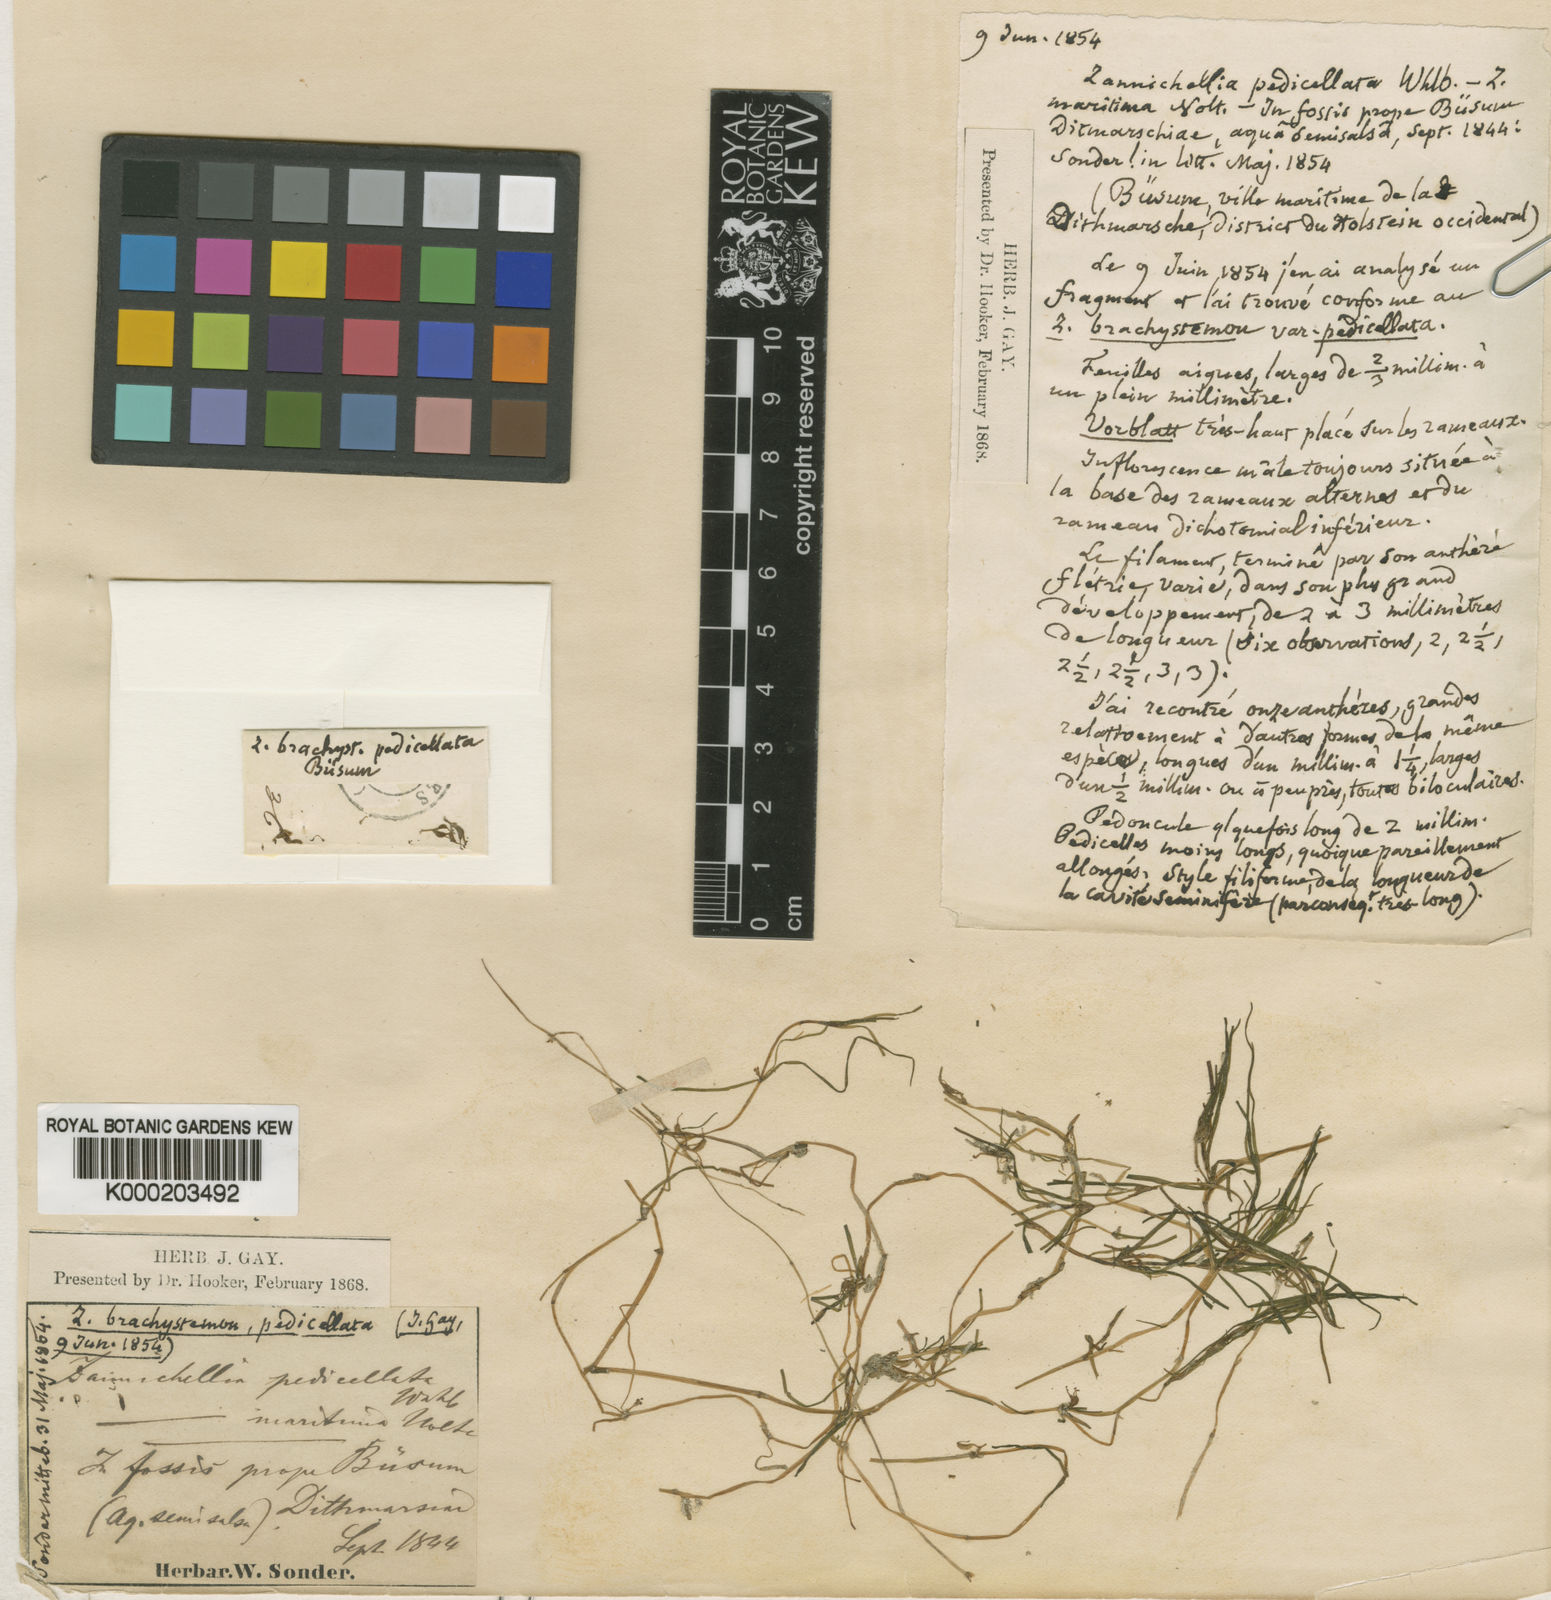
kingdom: Plantae
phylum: Tracheophyta
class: Liliopsida
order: Alismatales
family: Potamogetonaceae
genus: Zannichellia
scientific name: Zannichellia palustris
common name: Horned pondweed
